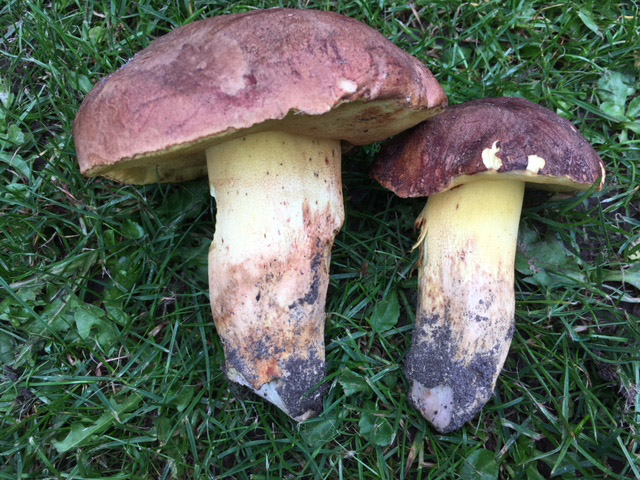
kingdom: Fungi
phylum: Basidiomycota
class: Agaricomycetes
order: Boletales
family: Boletaceae
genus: Butyriboletus
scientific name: Butyriboletus appendiculatus
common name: tenstokket rørhat
